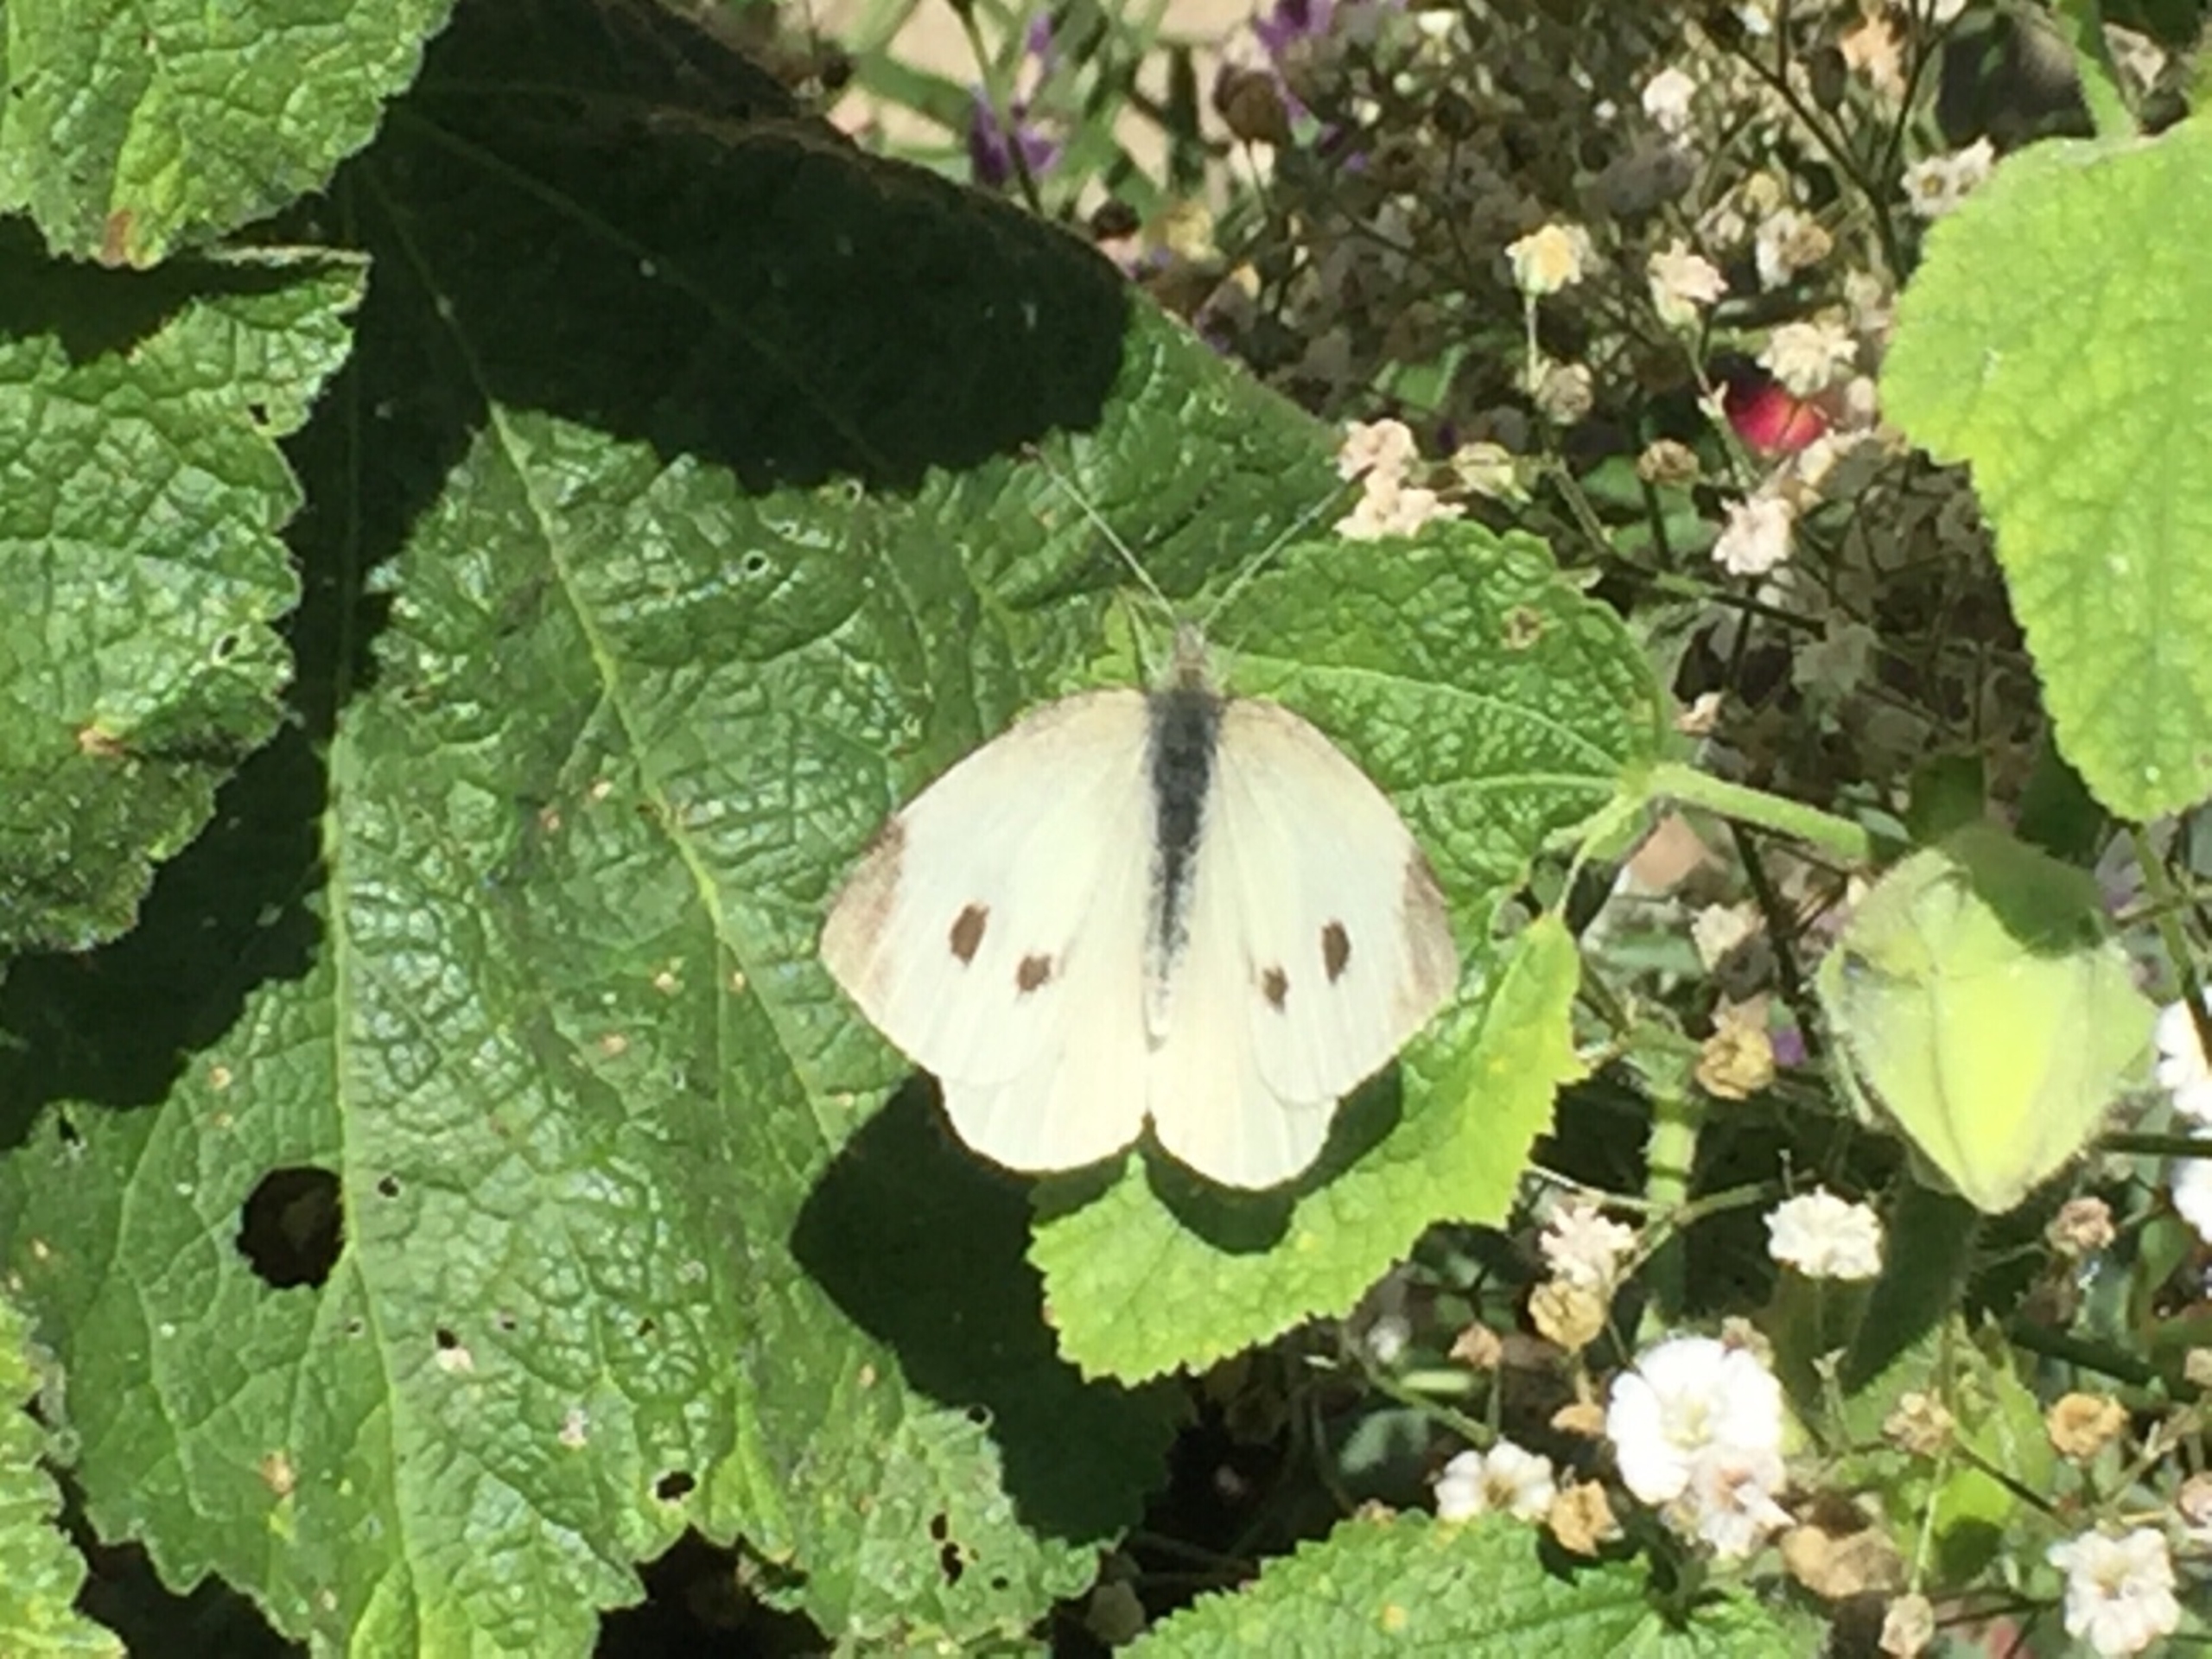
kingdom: Animalia
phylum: Arthropoda
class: Insecta
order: Lepidoptera
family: Pieridae
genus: Pieris
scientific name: Pieris rapae
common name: Lille kålsommerfugl
